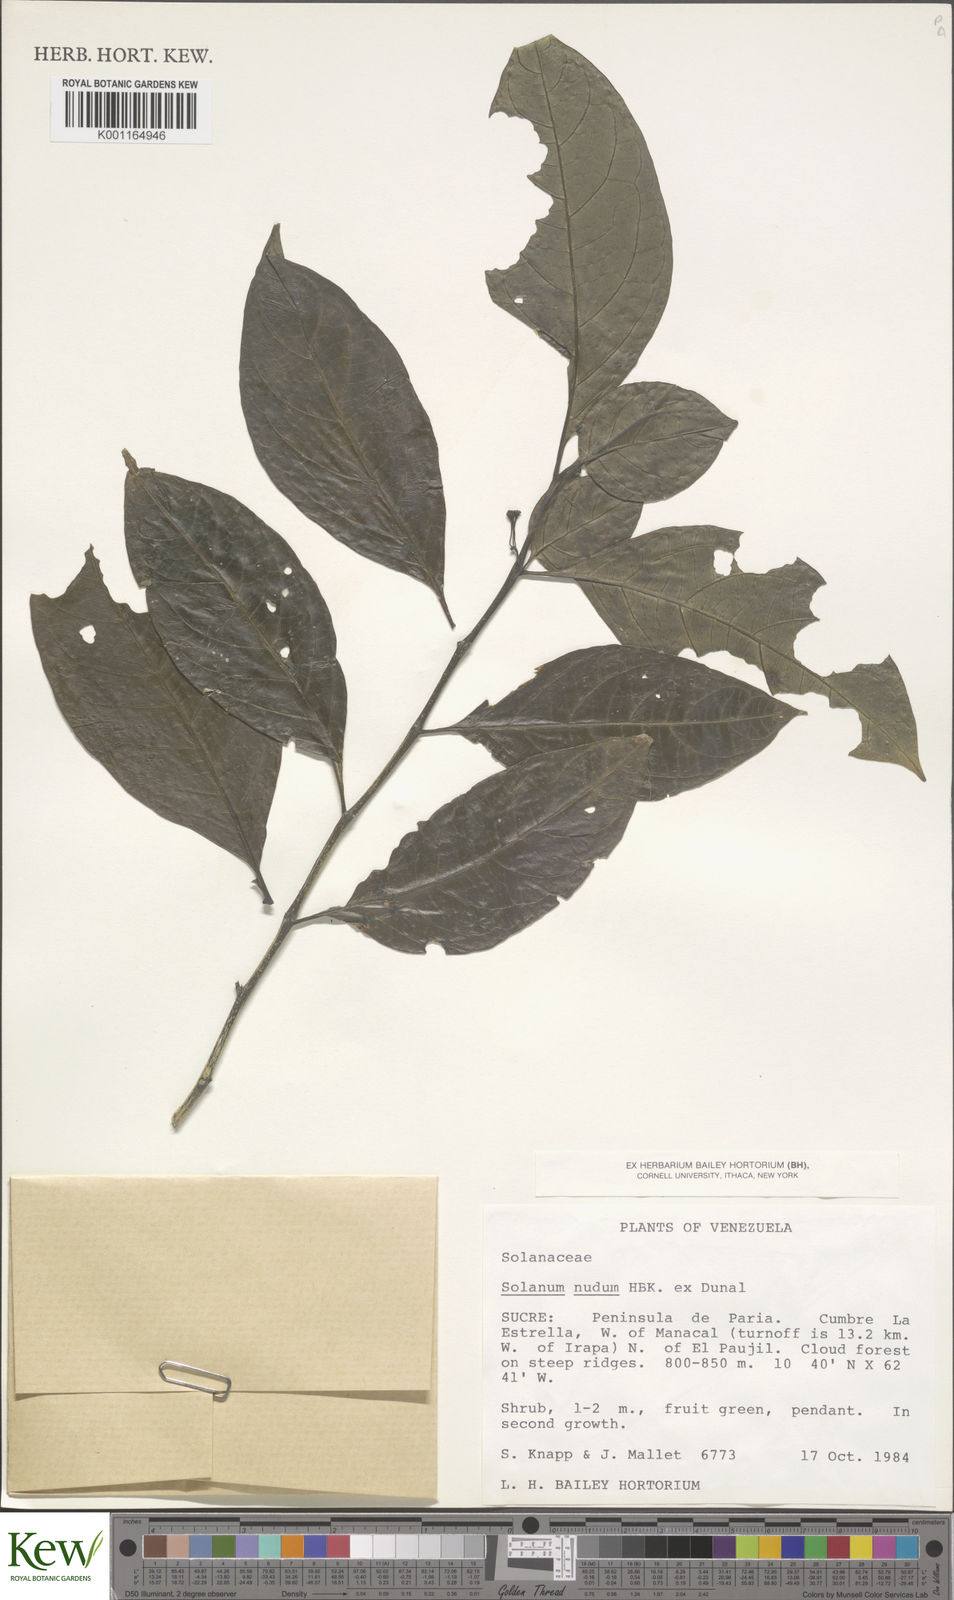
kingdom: Plantae
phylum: Tracheophyta
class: Magnoliopsida
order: Solanales
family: Solanaceae
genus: Solanum
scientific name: Solanum nudum
